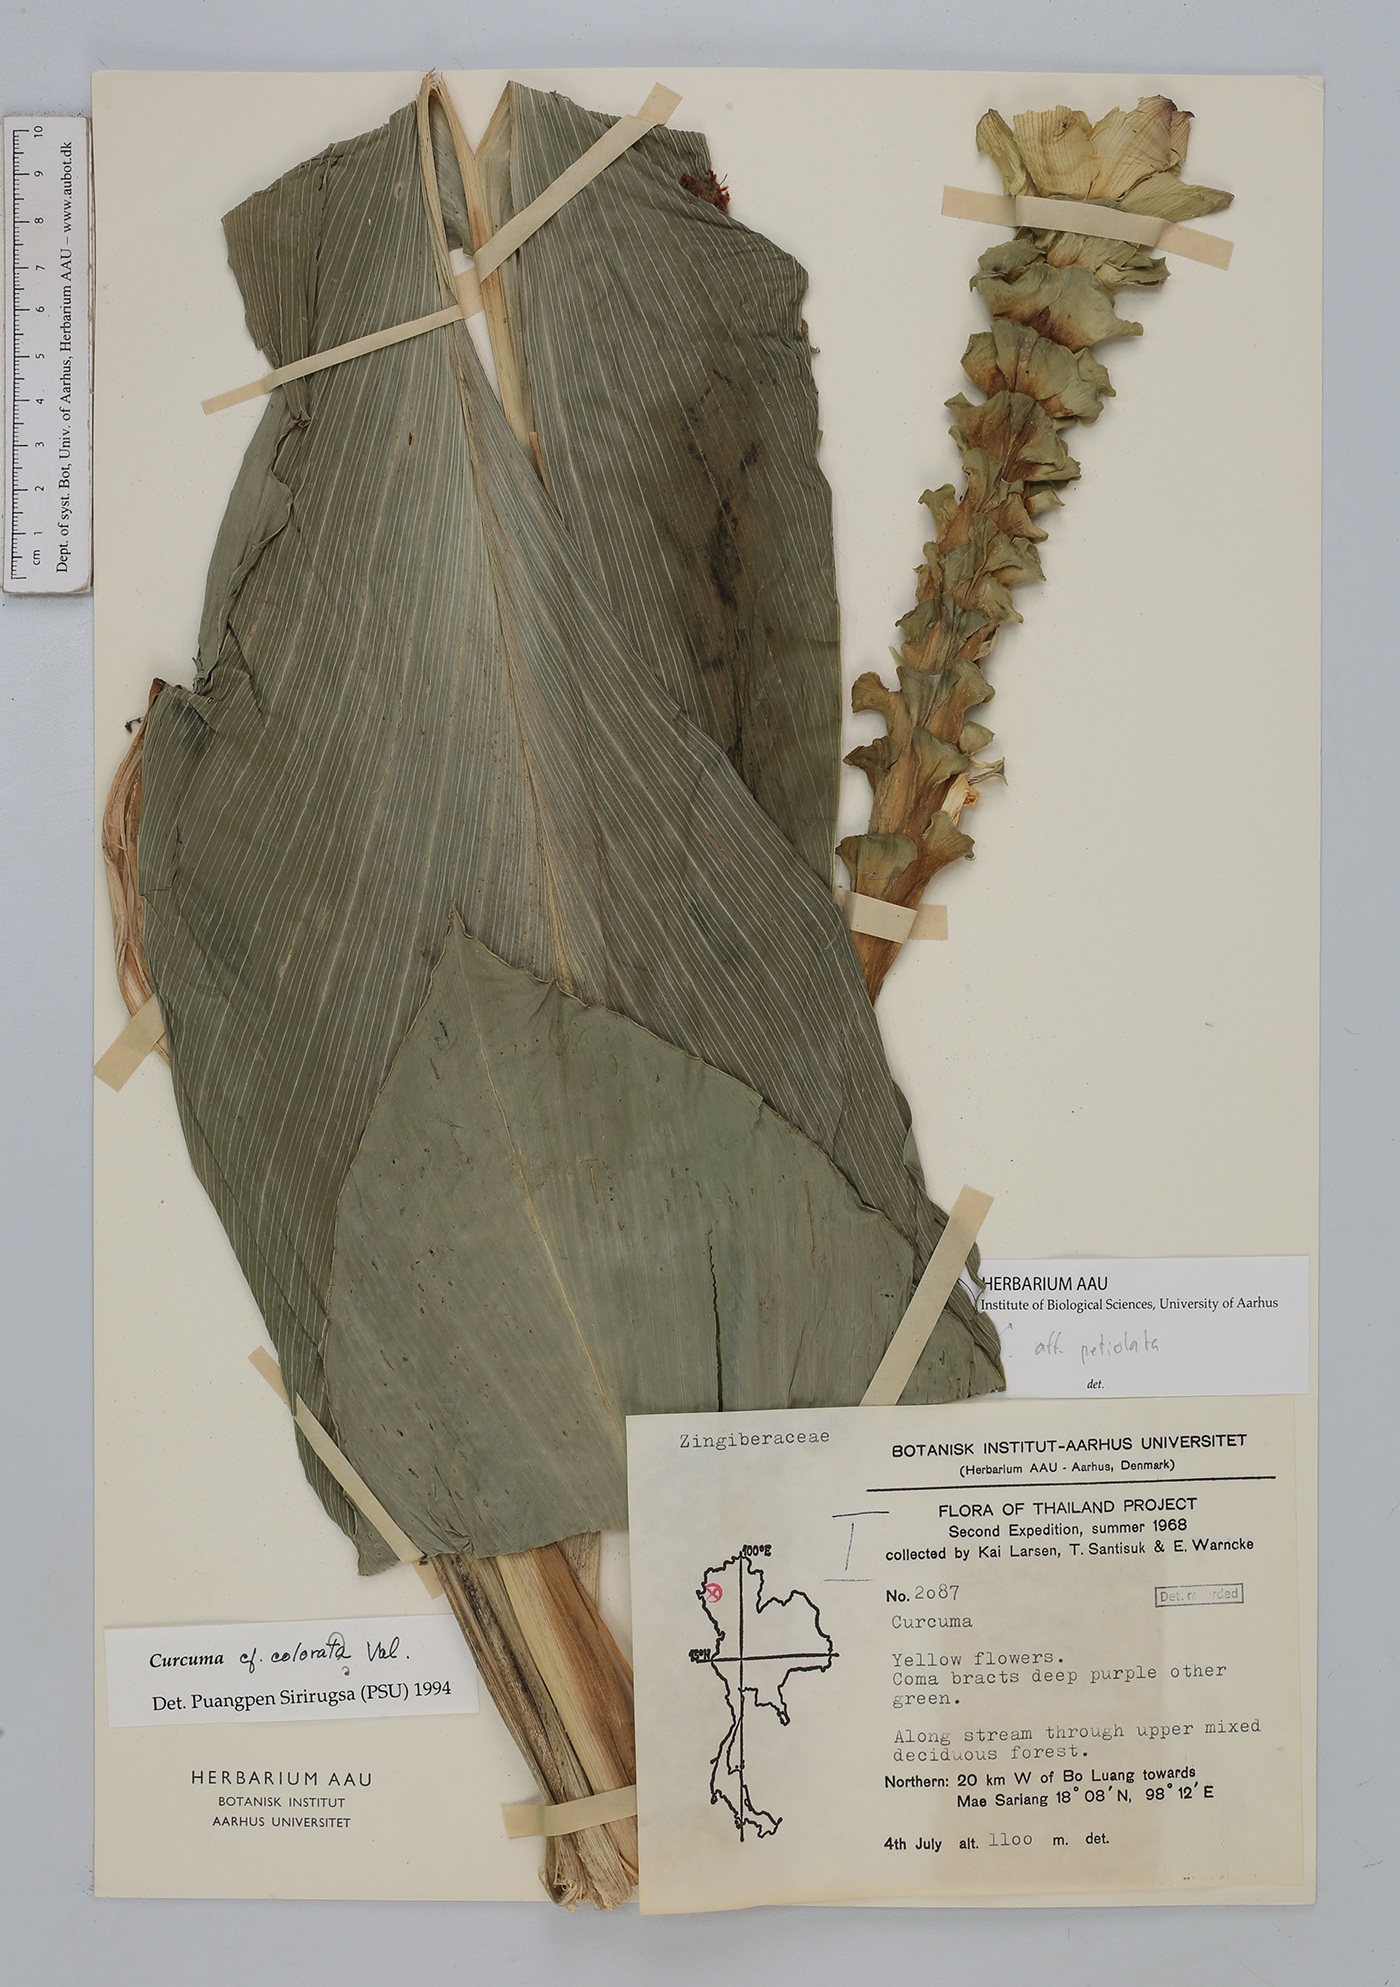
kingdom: Plantae
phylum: Tracheophyta
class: Liliopsida
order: Zingiberales
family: Zingiberaceae
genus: Curcuma
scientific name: Curcuma
